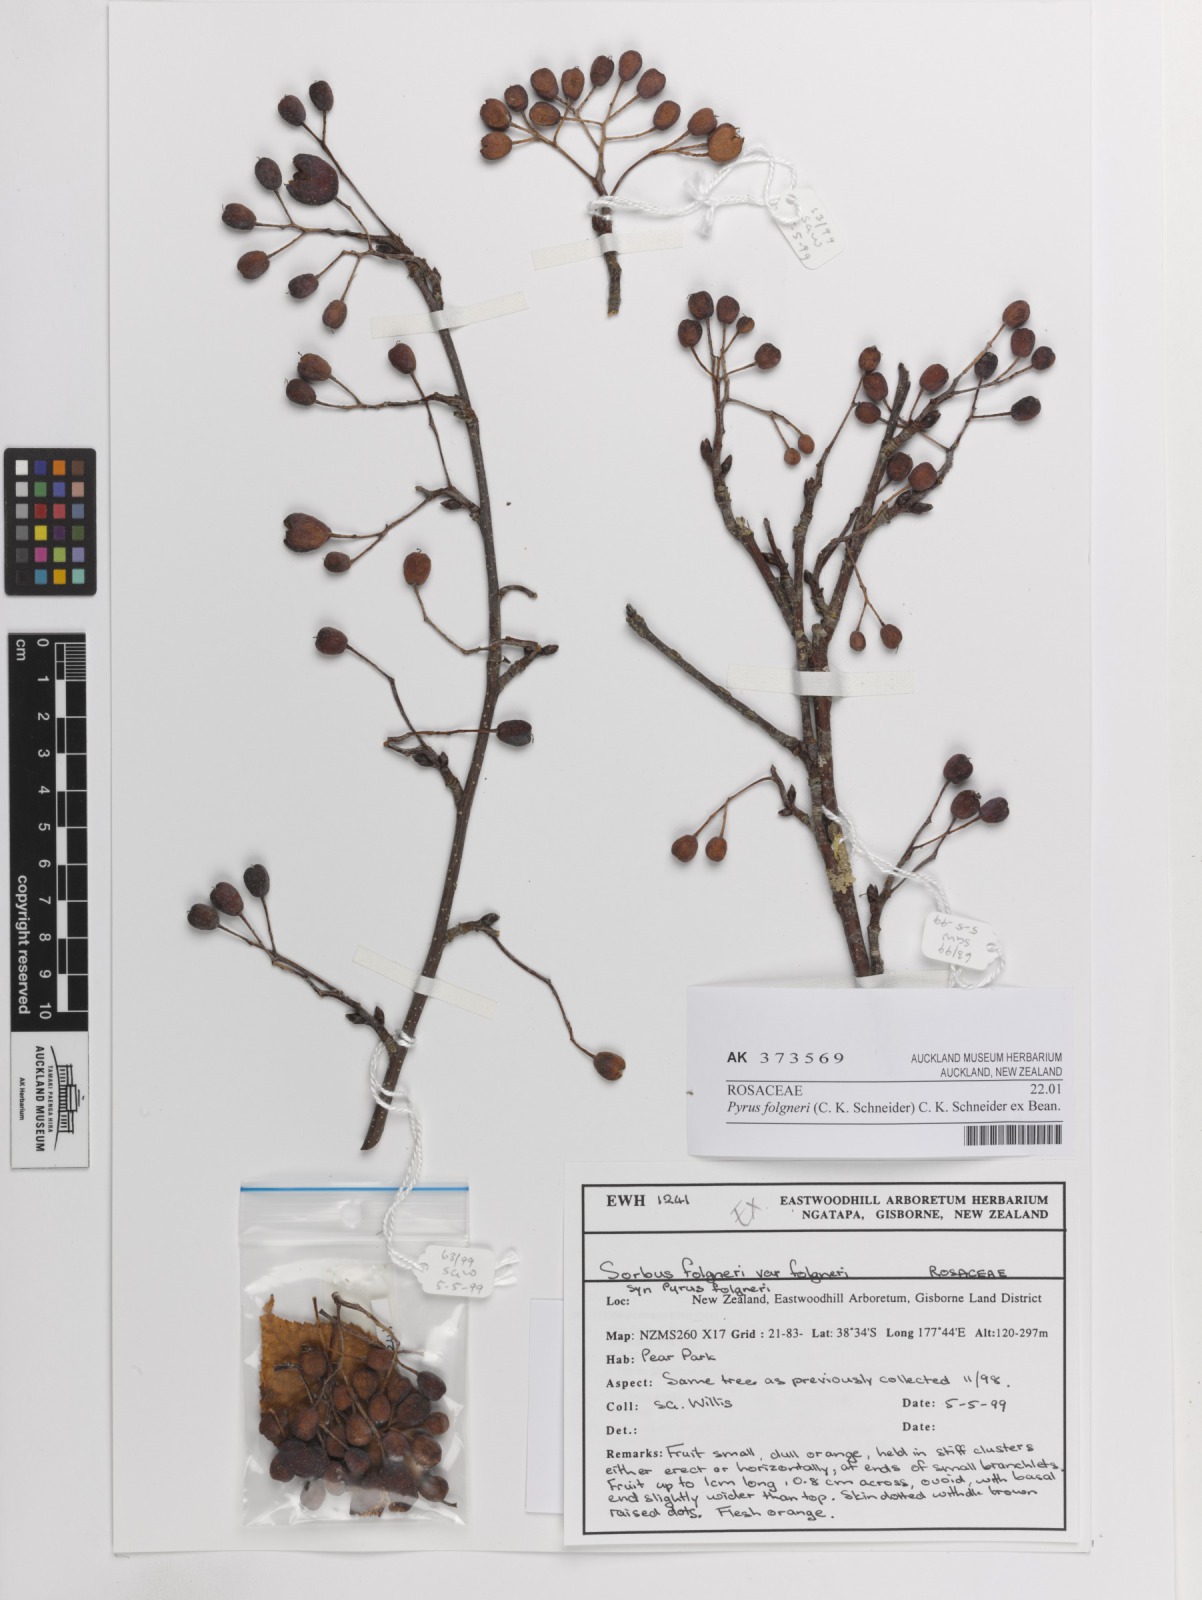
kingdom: Plantae
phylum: Tracheophyta
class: Magnoliopsida
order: Rosales
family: Rosaceae
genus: Sorbus
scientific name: Sorbus folgneri
